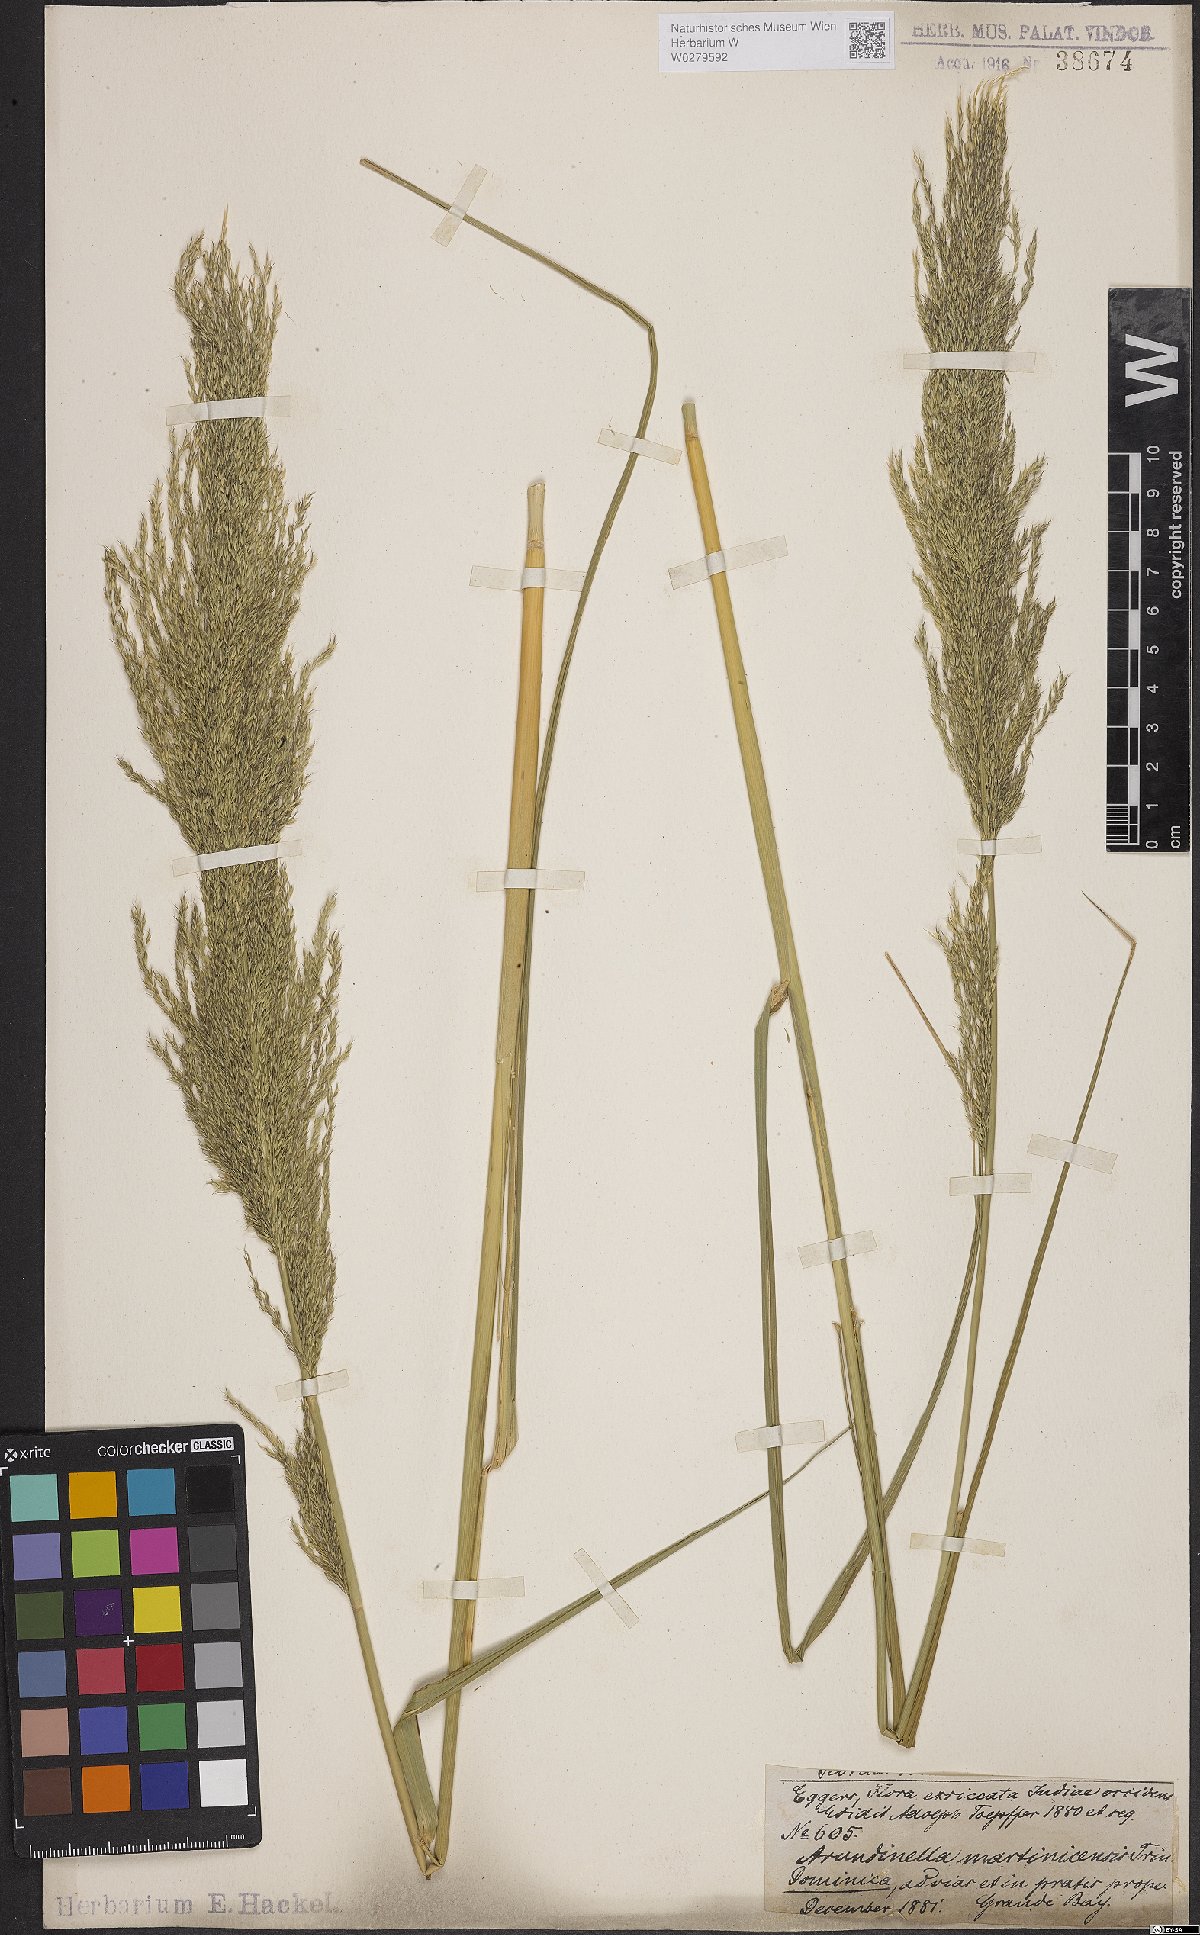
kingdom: Plantae
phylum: Tracheophyta
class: Liliopsida
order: Poales
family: Poaceae
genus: Arundinella
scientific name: Arundinella hispida
